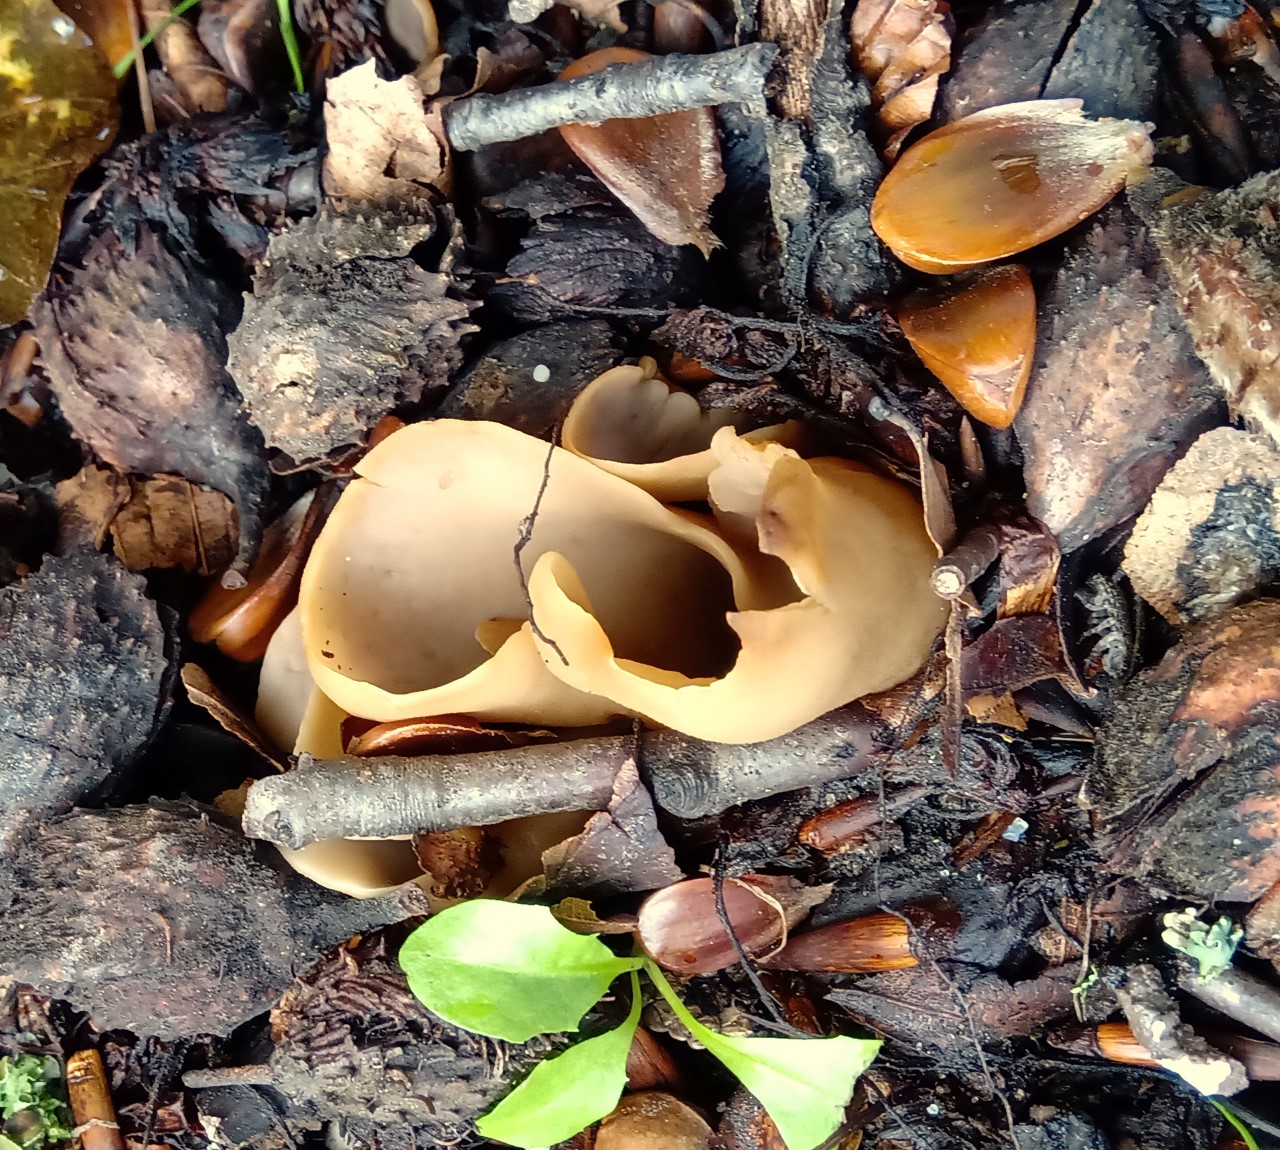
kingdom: Fungi
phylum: Ascomycota
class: Pezizomycetes
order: Pezizales
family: Otideaceae
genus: Otidea
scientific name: Otidea alutacea
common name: læder-ørebæger
